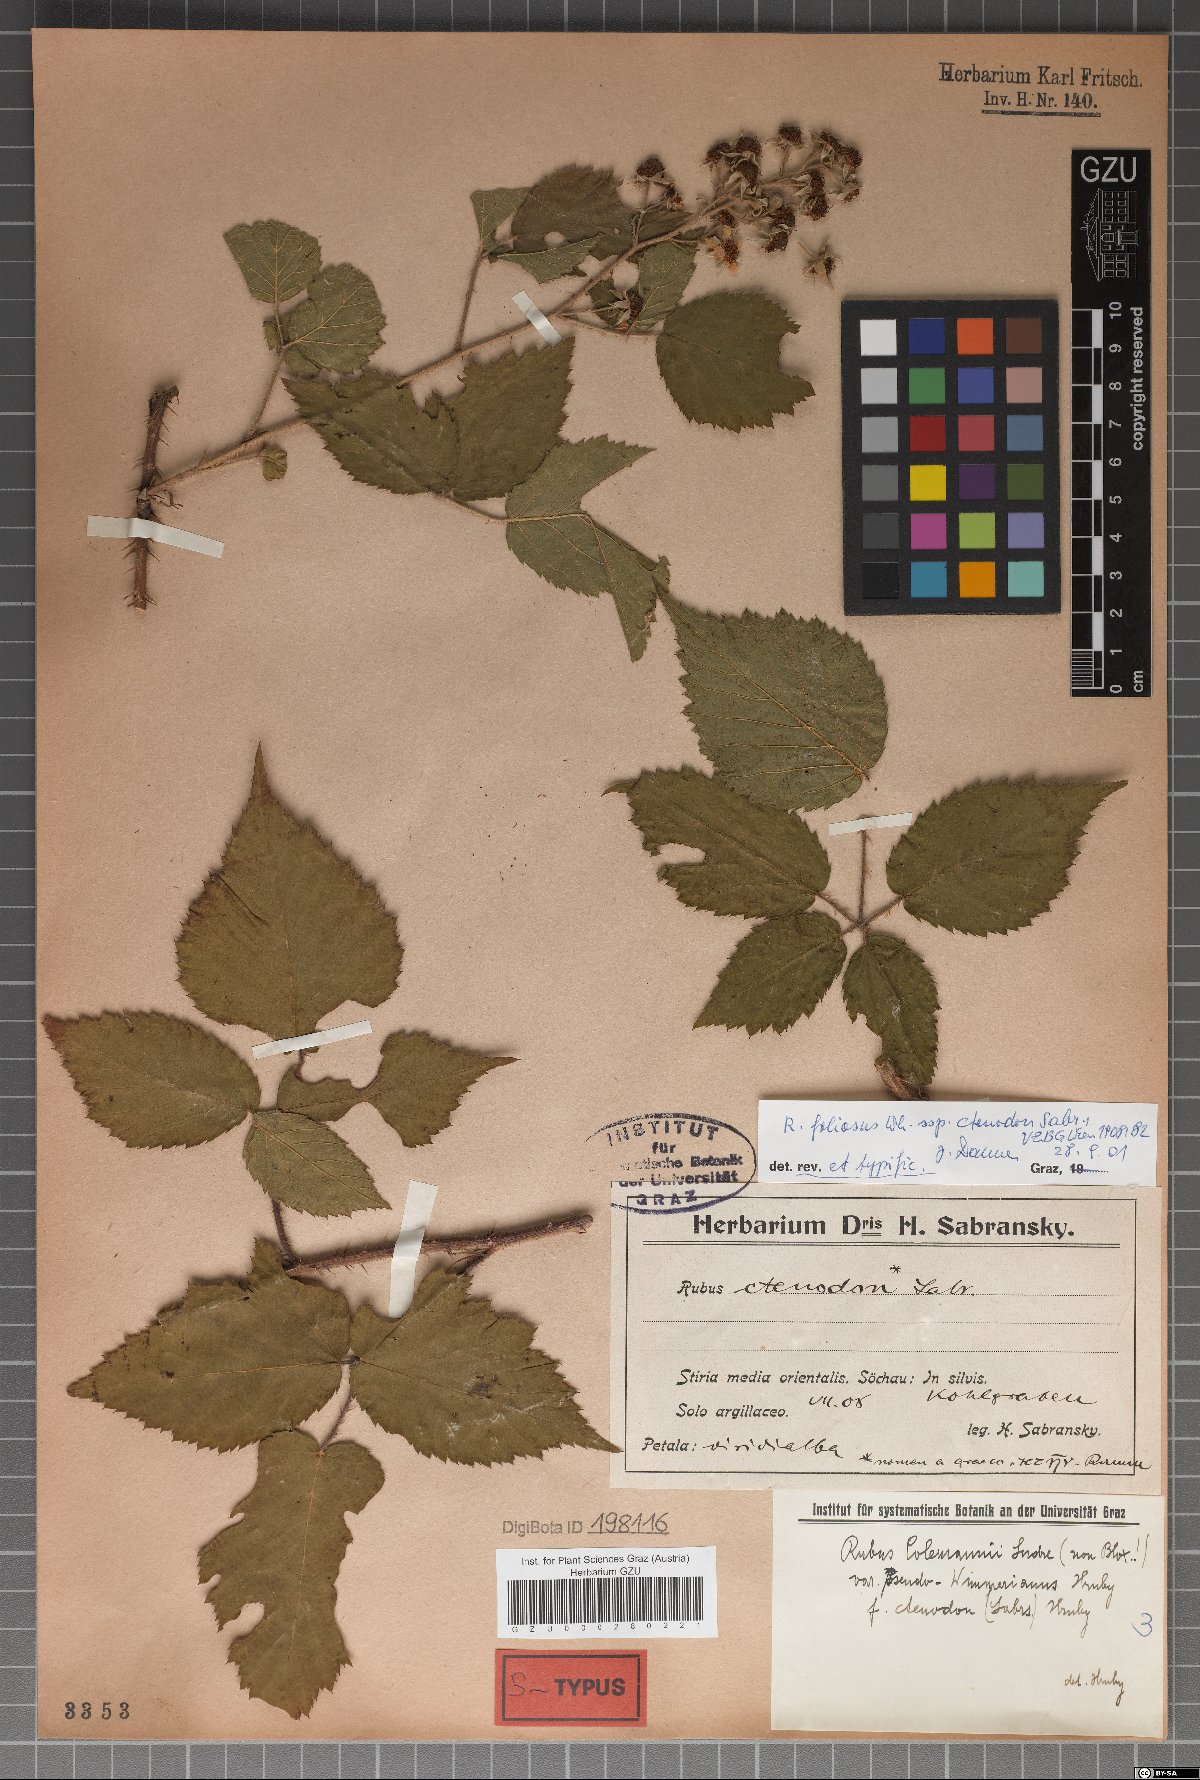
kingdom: Plantae
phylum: Tracheophyta
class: Magnoliopsida
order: Rosales
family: Rosaceae
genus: Rubus
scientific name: Rubus foliosus
